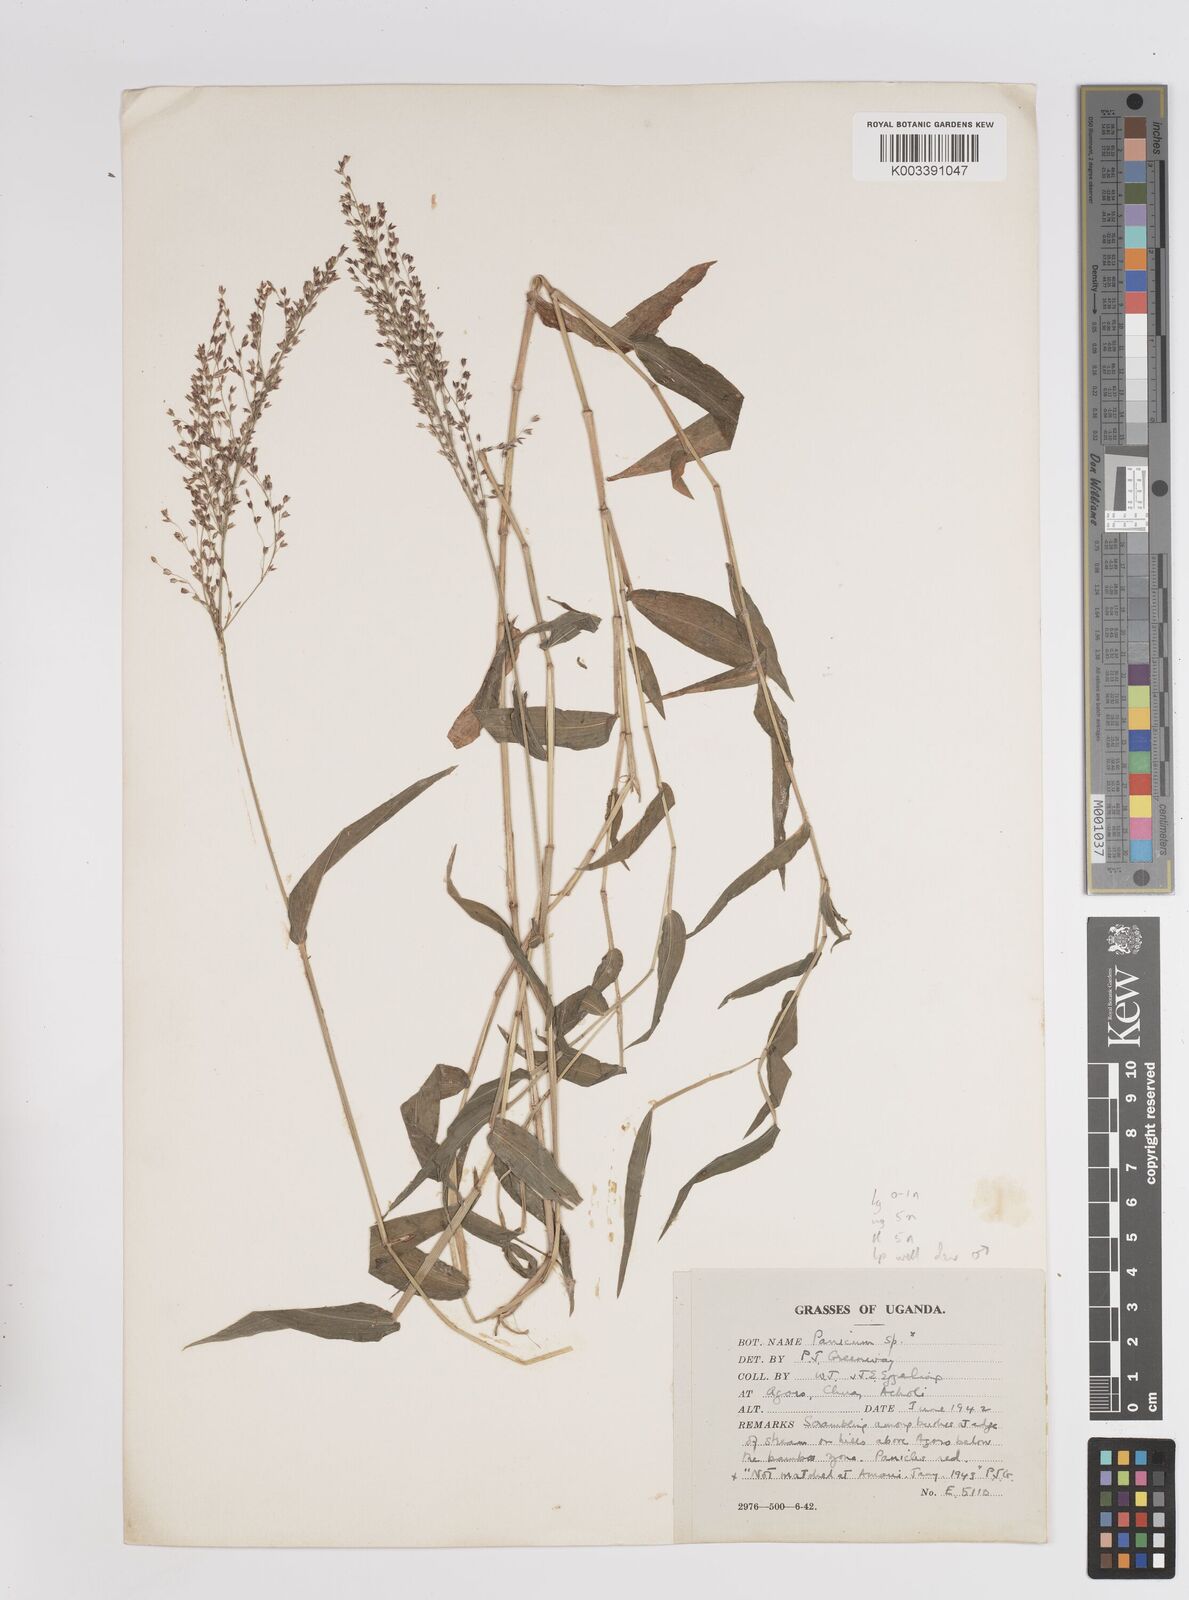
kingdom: Plantae
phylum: Tracheophyta
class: Liliopsida
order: Poales
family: Poaceae
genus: Panicum
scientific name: Panicum wiehei
